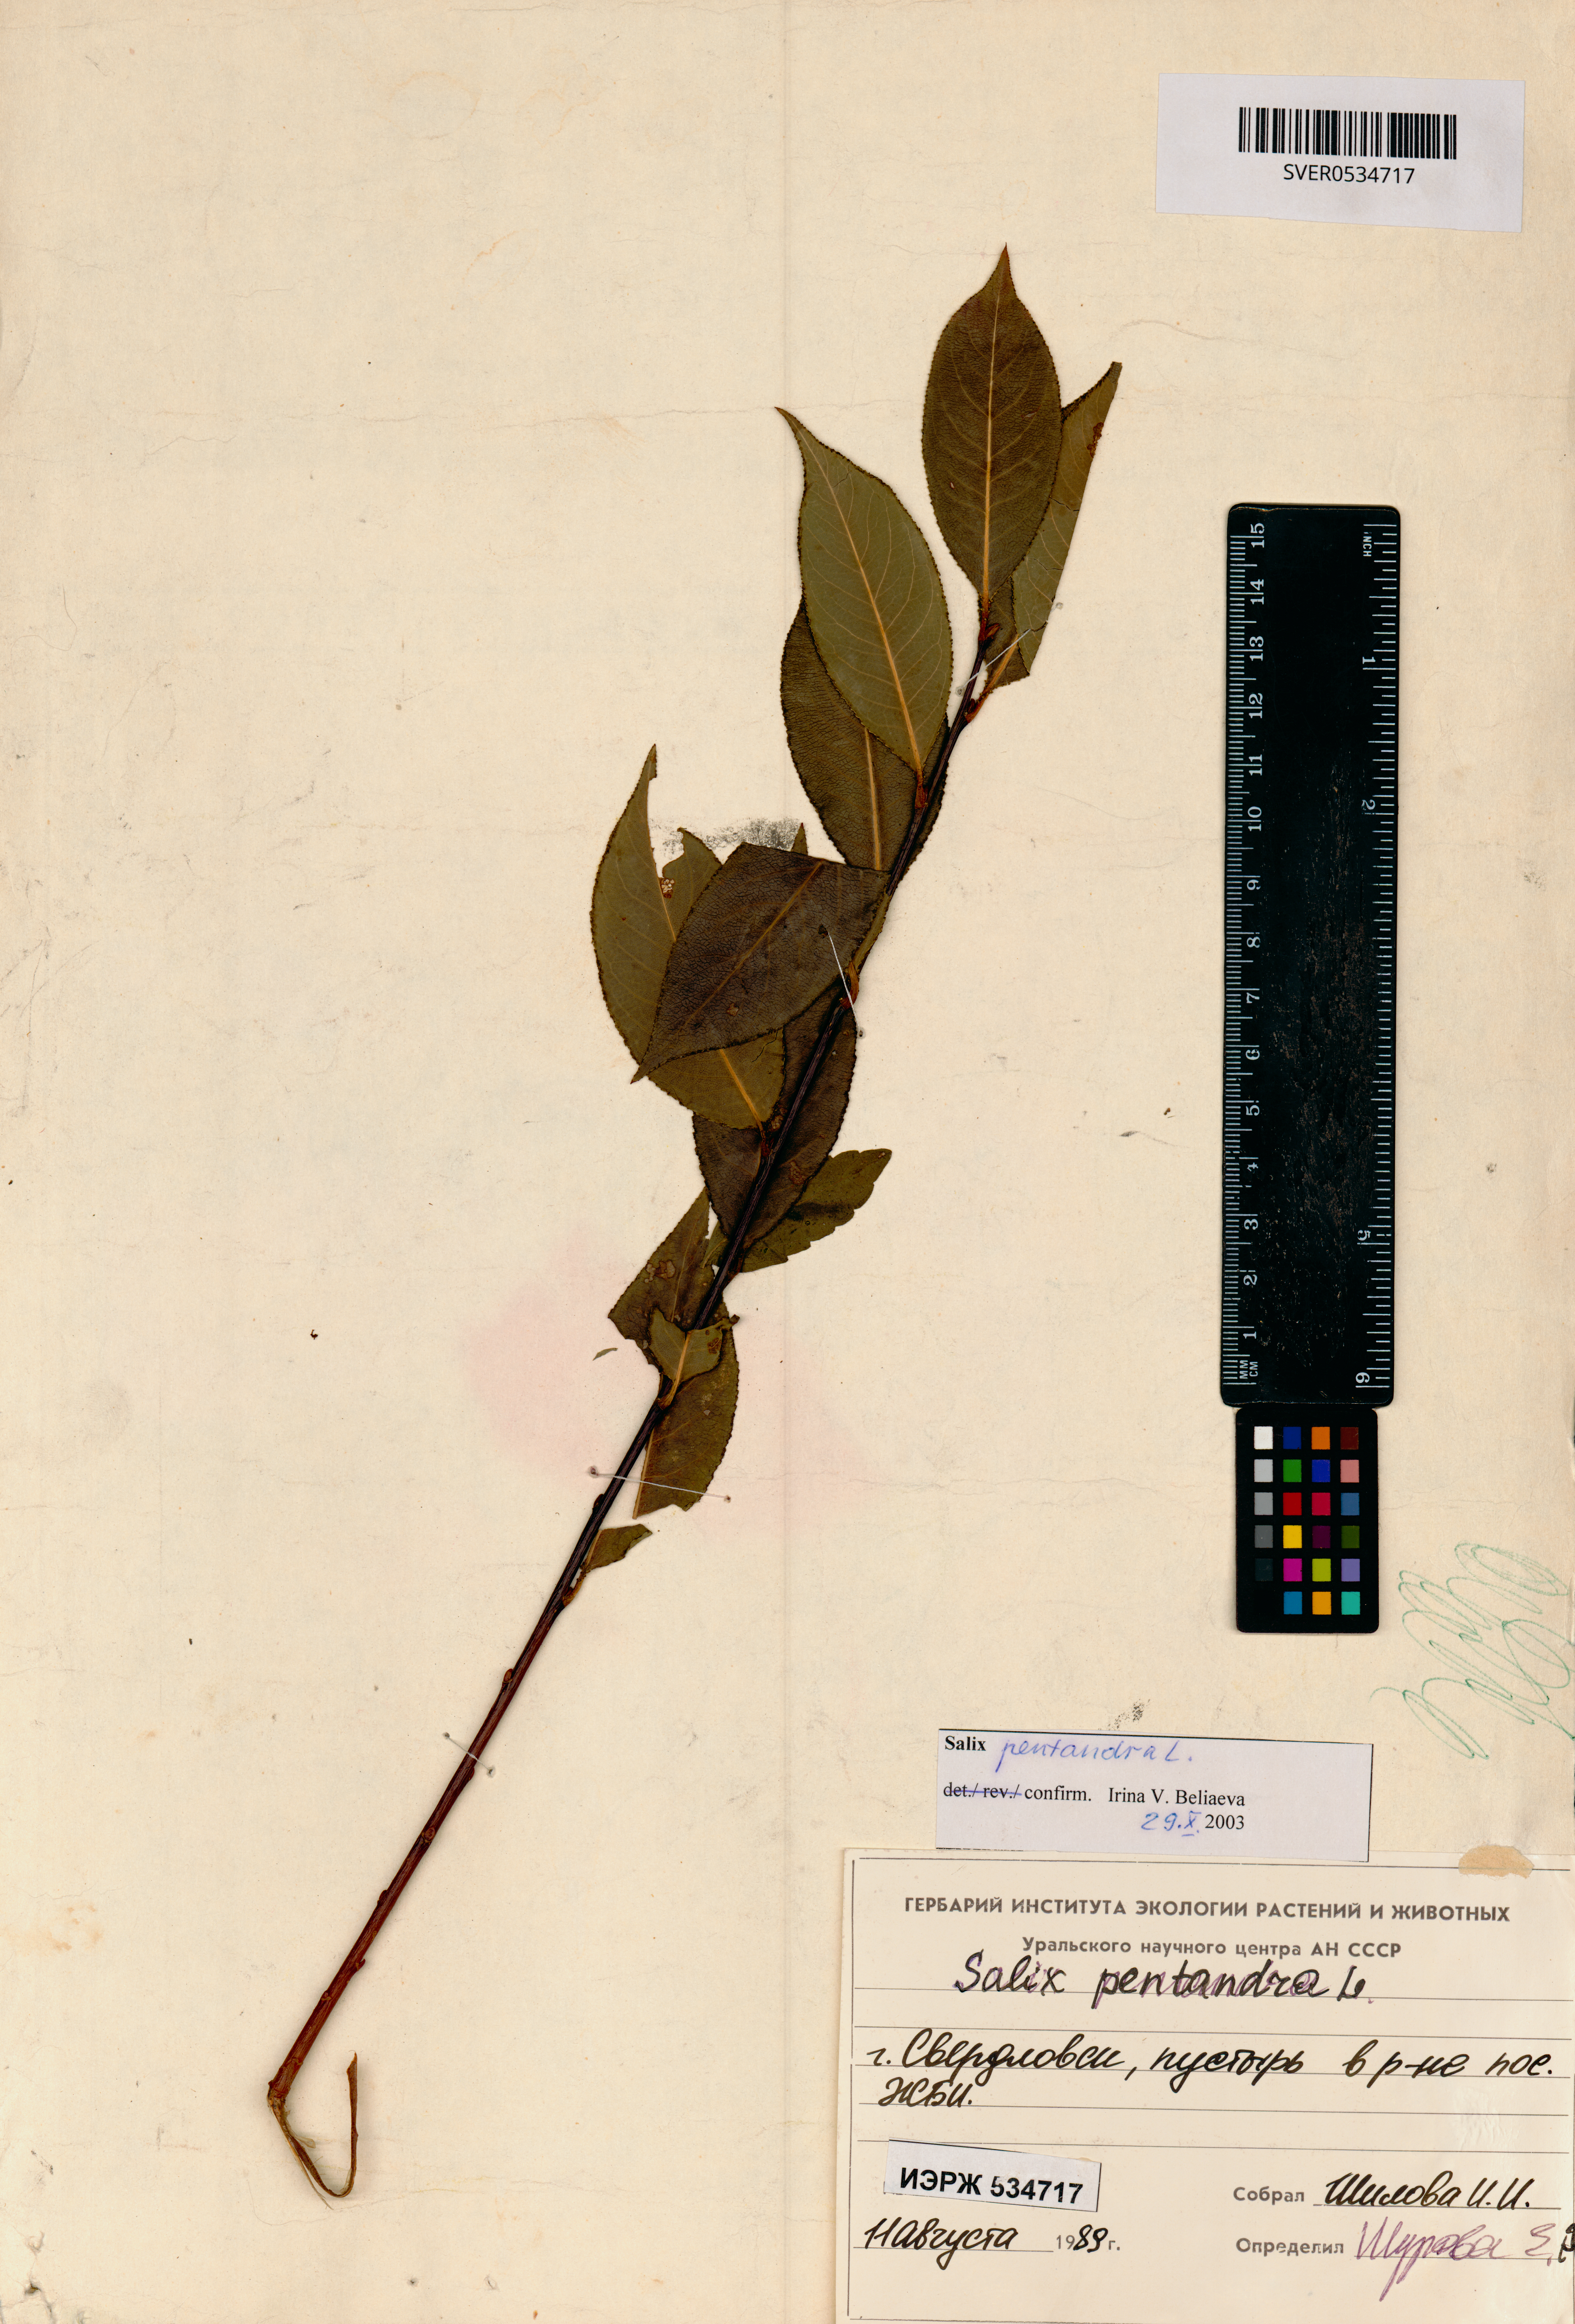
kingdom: Plantae
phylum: Tracheophyta
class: Magnoliopsida
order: Malpighiales
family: Salicaceae
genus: Salix
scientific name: Salix pentandra
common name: Bay willow
